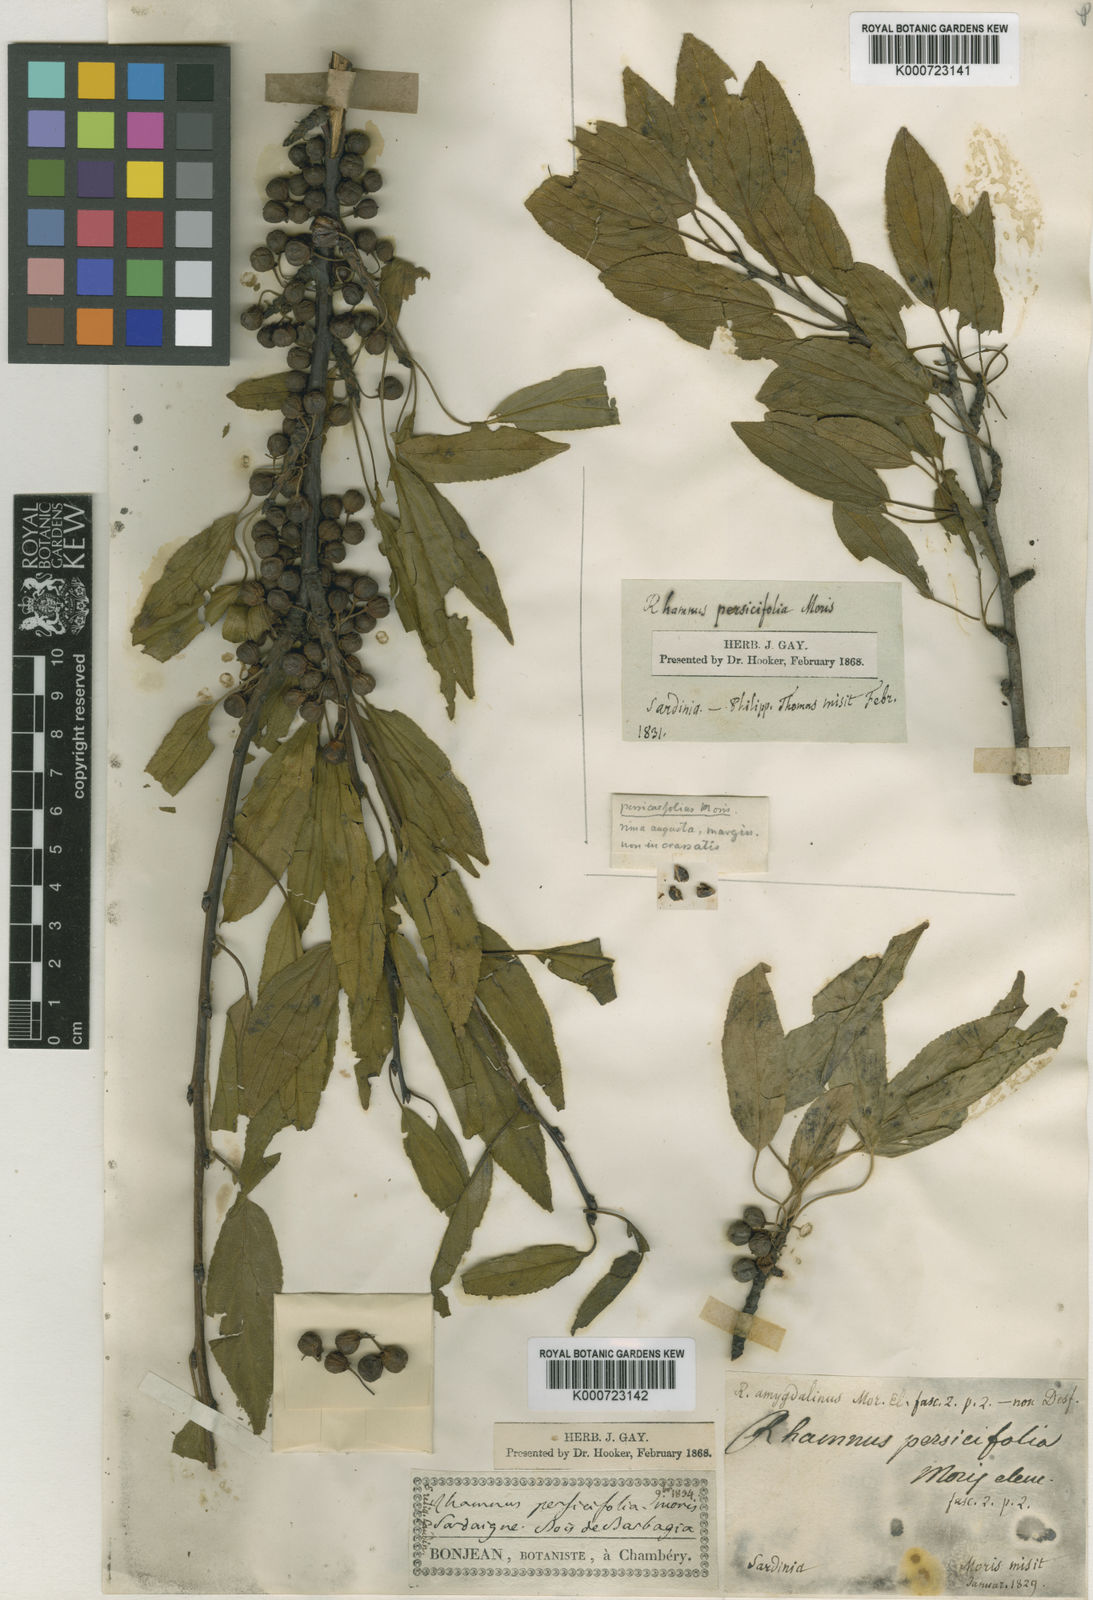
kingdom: Plantae
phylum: Tracheophyta
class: Magnoliopsida
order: Rosales
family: Rhamnaceae
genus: Rhamnus
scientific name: Rhamnus persicifolia
